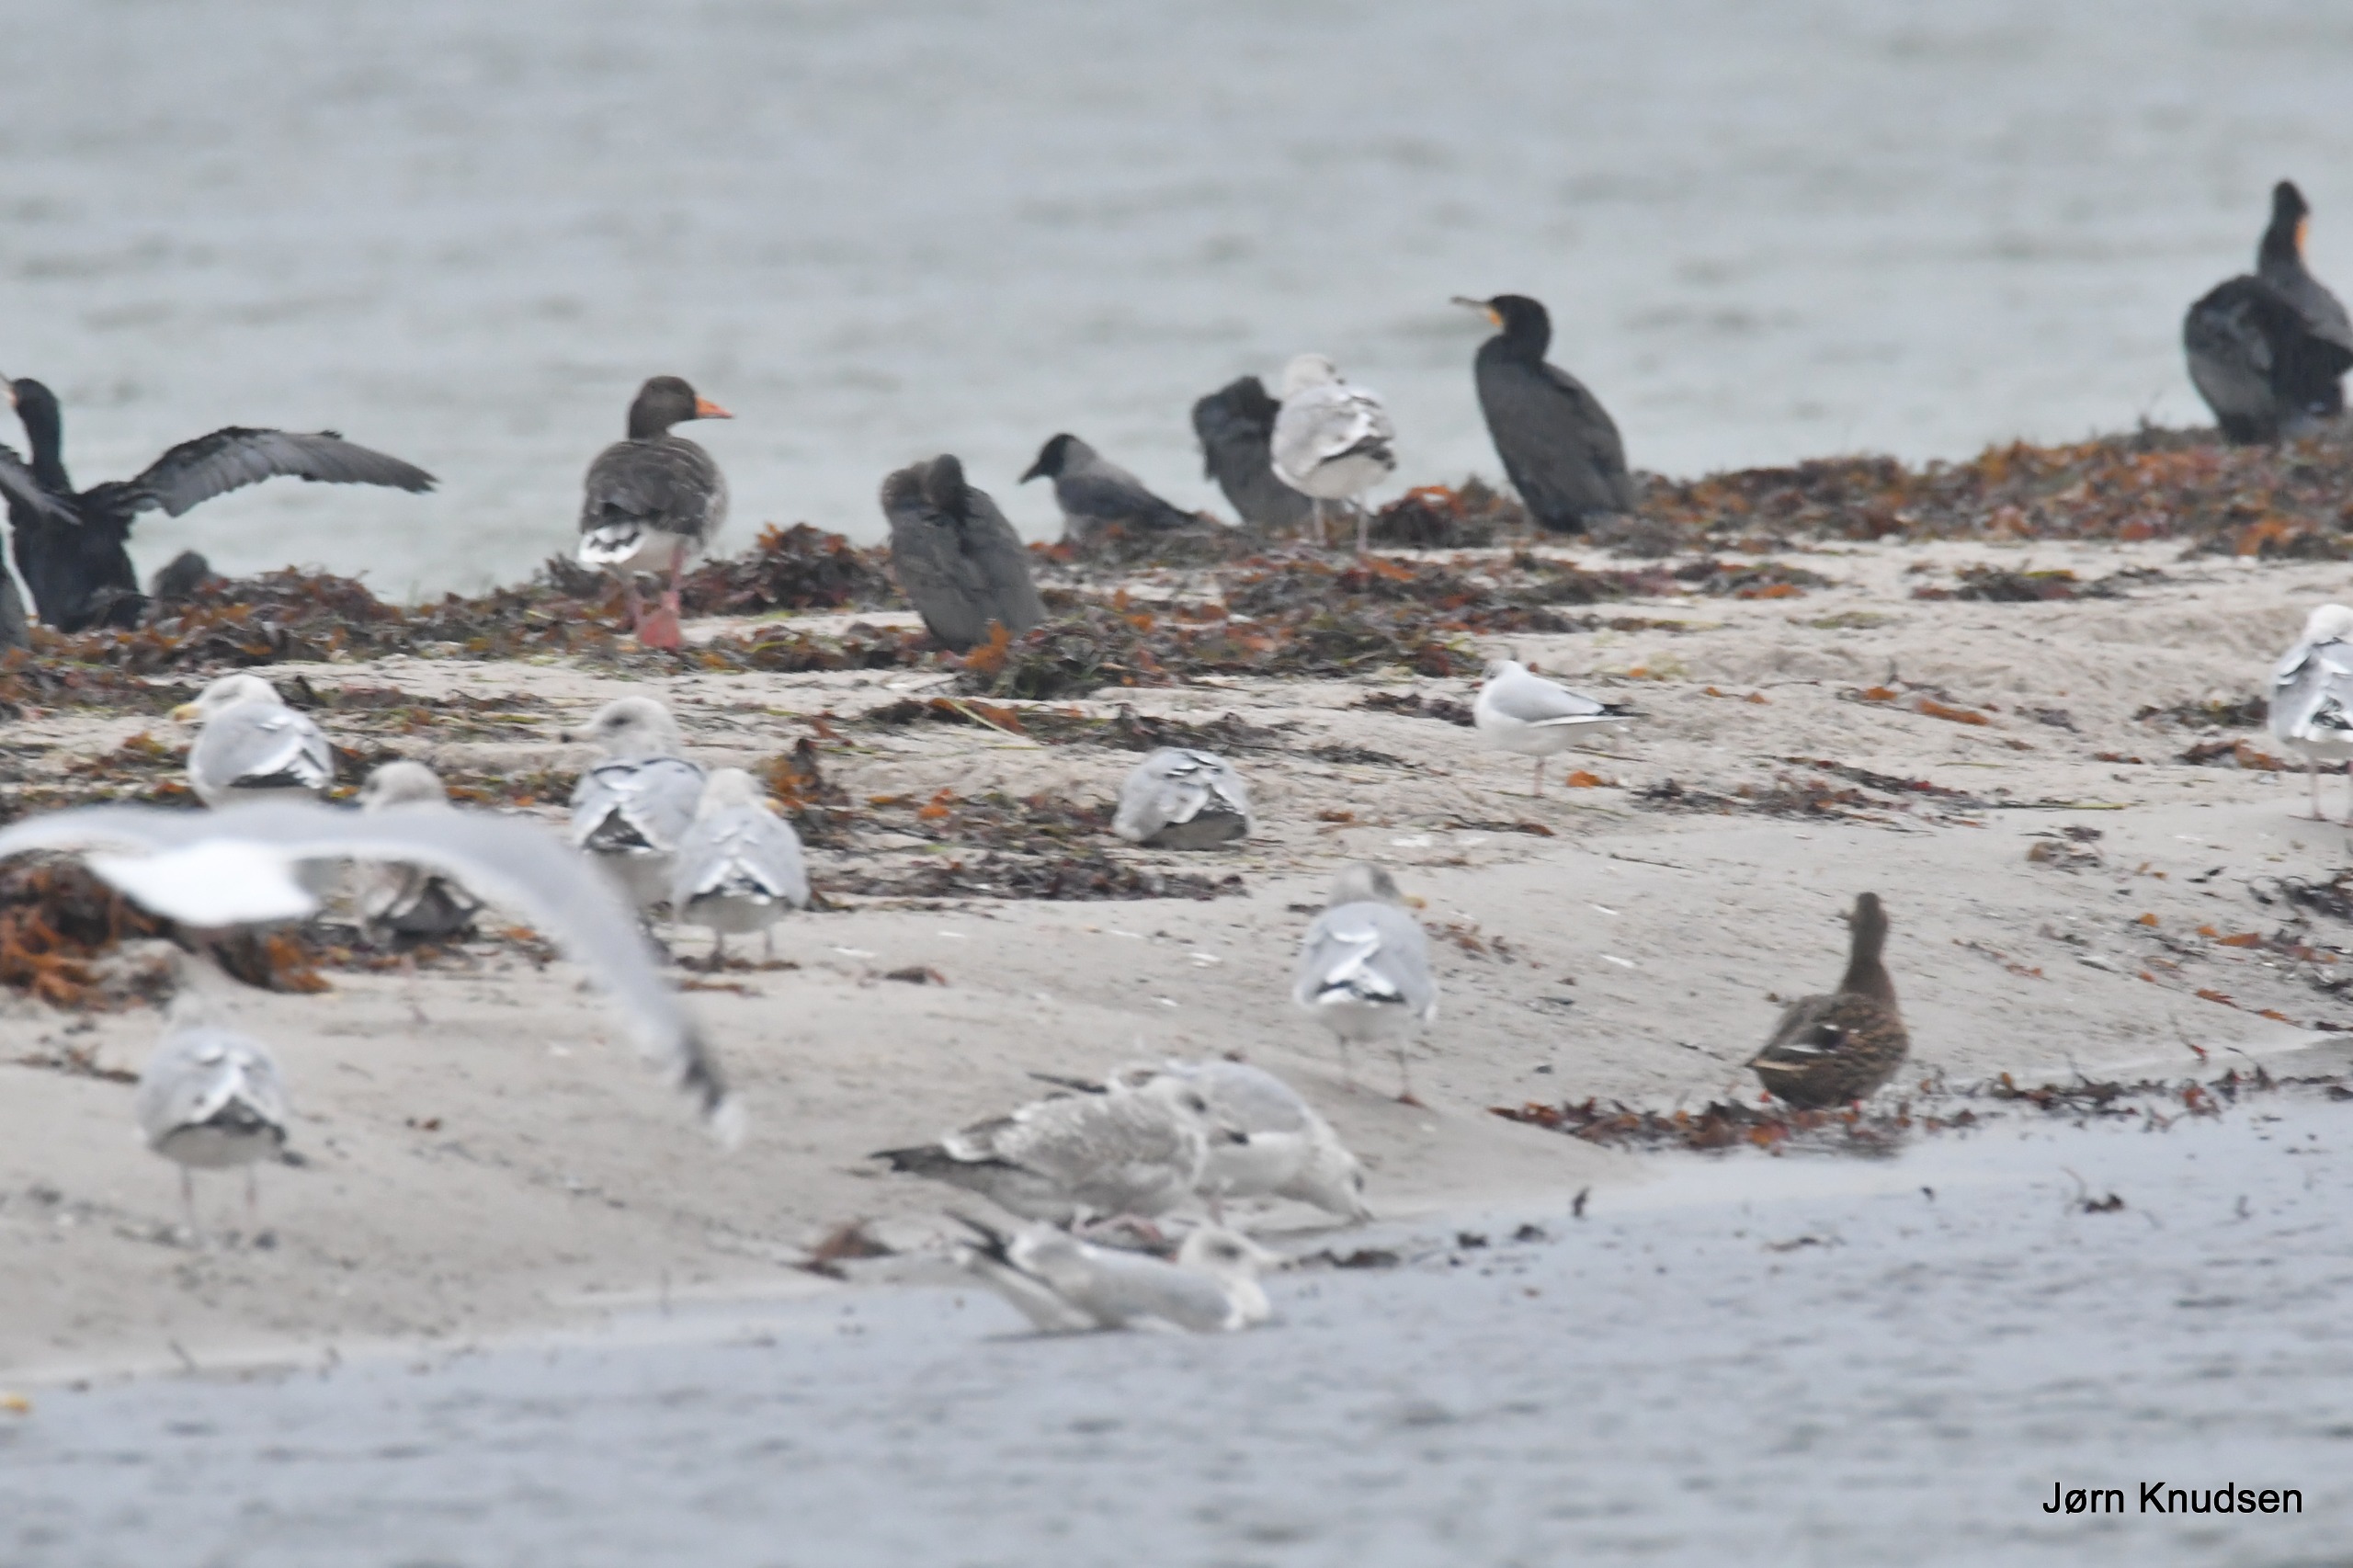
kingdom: Animalia
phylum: Chordata
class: Aves
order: Charadriiformes
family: Laridae
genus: Chroicocephalus
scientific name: Chroicocephalus ridibundus
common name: Hættemåge
